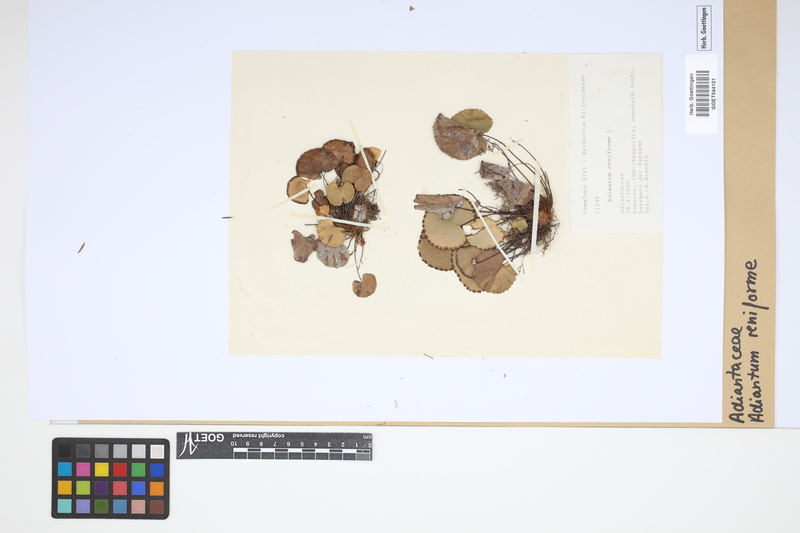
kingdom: Plantae
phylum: Tracheophyta
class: Polypodiopsida
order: Polypodiales
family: Pteridaceae
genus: Adiantum
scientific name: Adiantum reniforme
